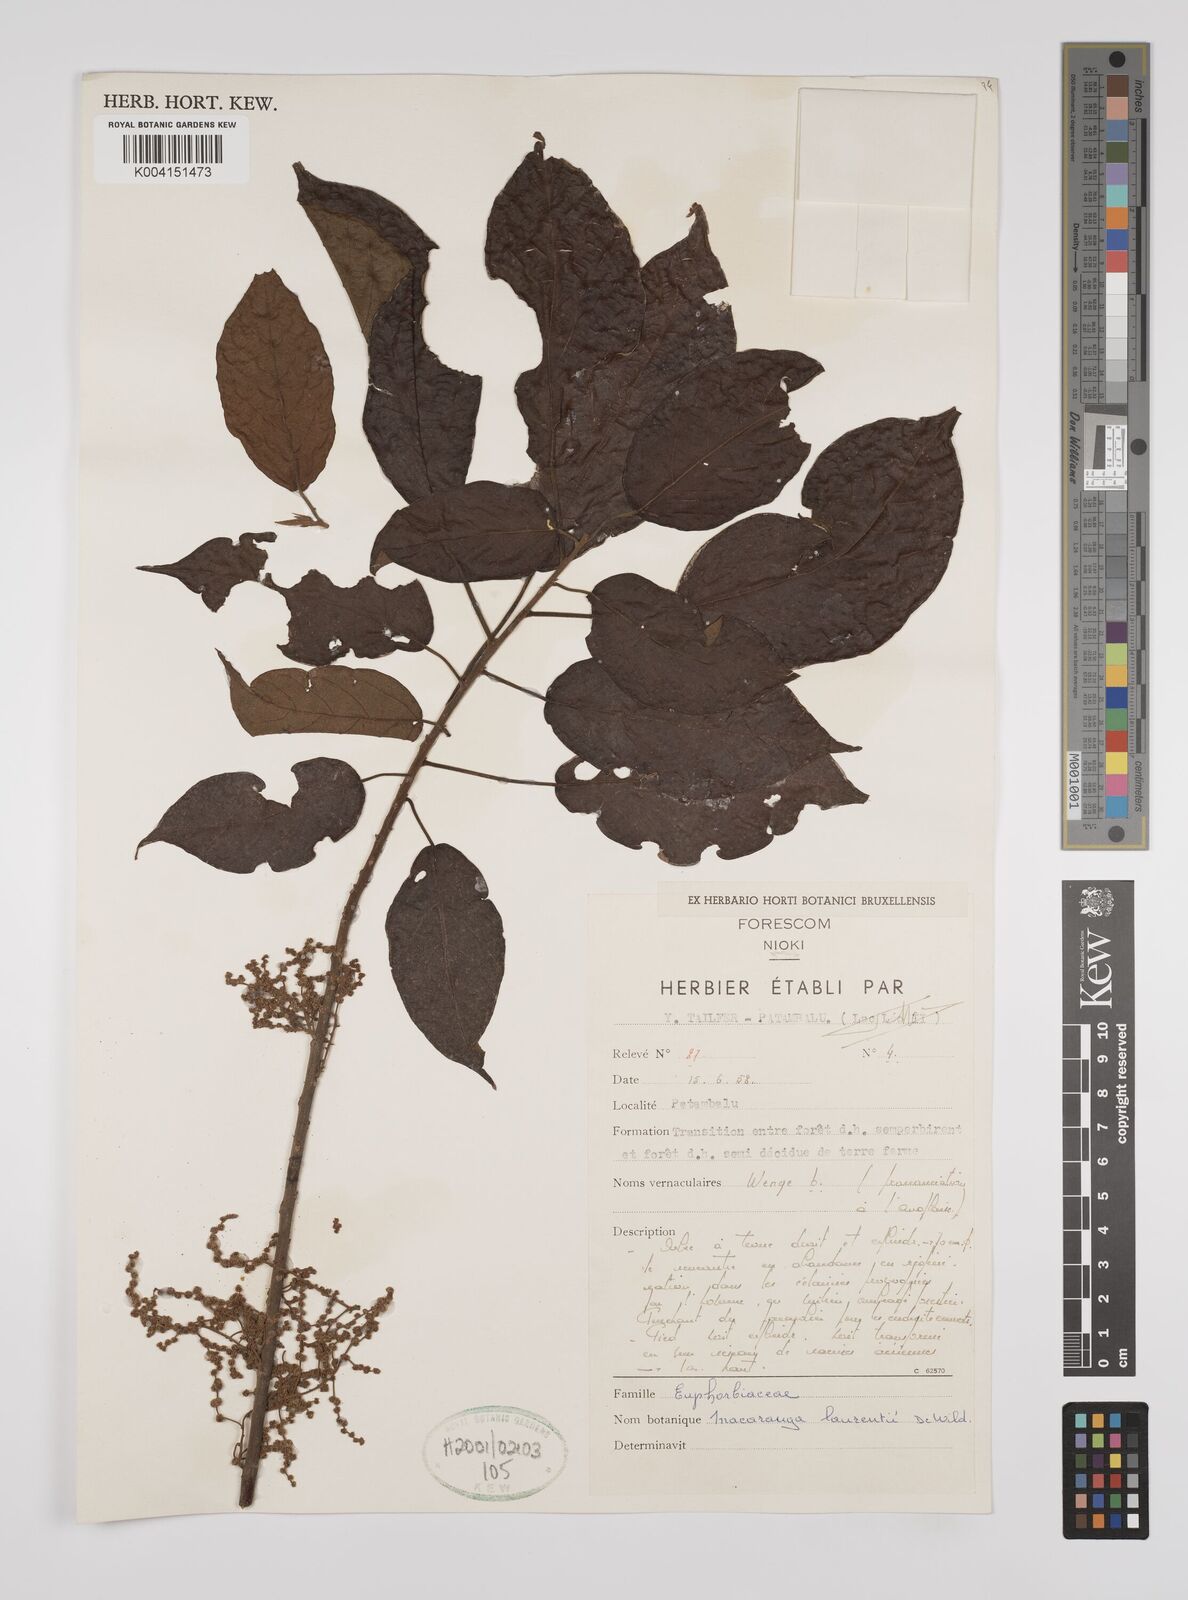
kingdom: Plantae
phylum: Tracheophyta
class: Magnoliopsida
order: Malpighiales
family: Euphorbiaceae
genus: Macaranga
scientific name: Macaranga poggei
